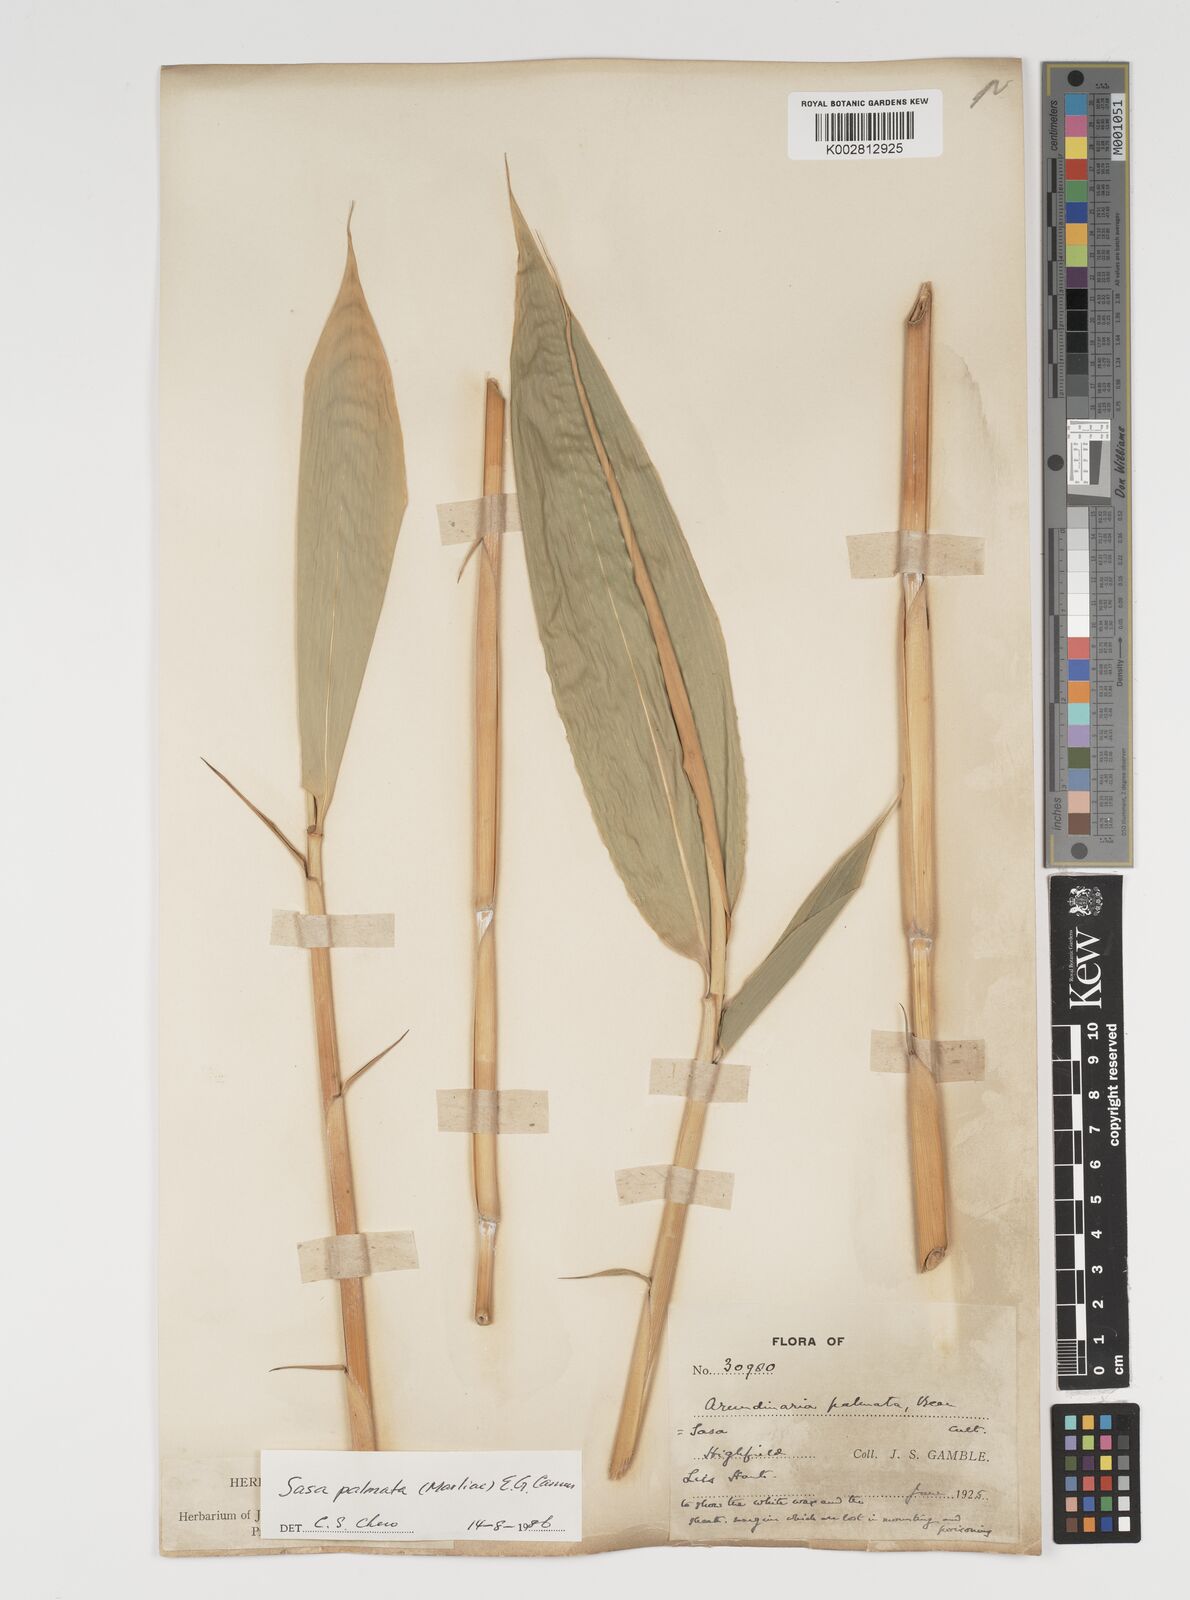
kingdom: Plantae
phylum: Tracheophyta
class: Liliopsida
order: Poales
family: Poaceae
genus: Sasa
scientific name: Sasa palmata
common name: Broad-leaved bamboo
